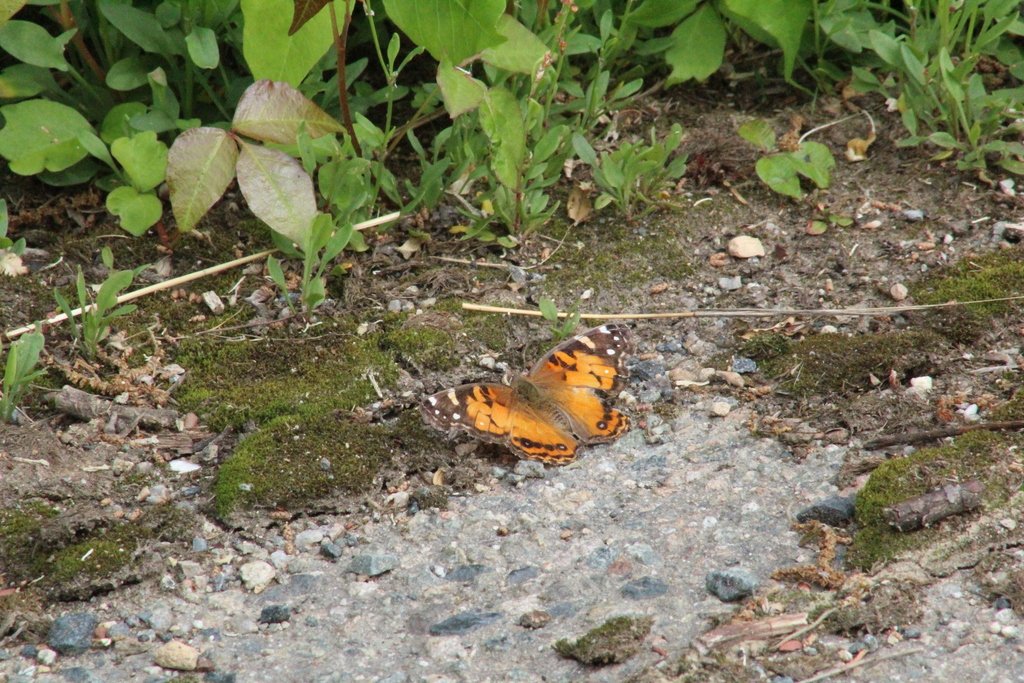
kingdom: Animalia
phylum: Arthropoda
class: Insecta
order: Lepidoptera
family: Nymphalidae
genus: Vanessa
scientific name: Vanessa virginiensis
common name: American Lady
